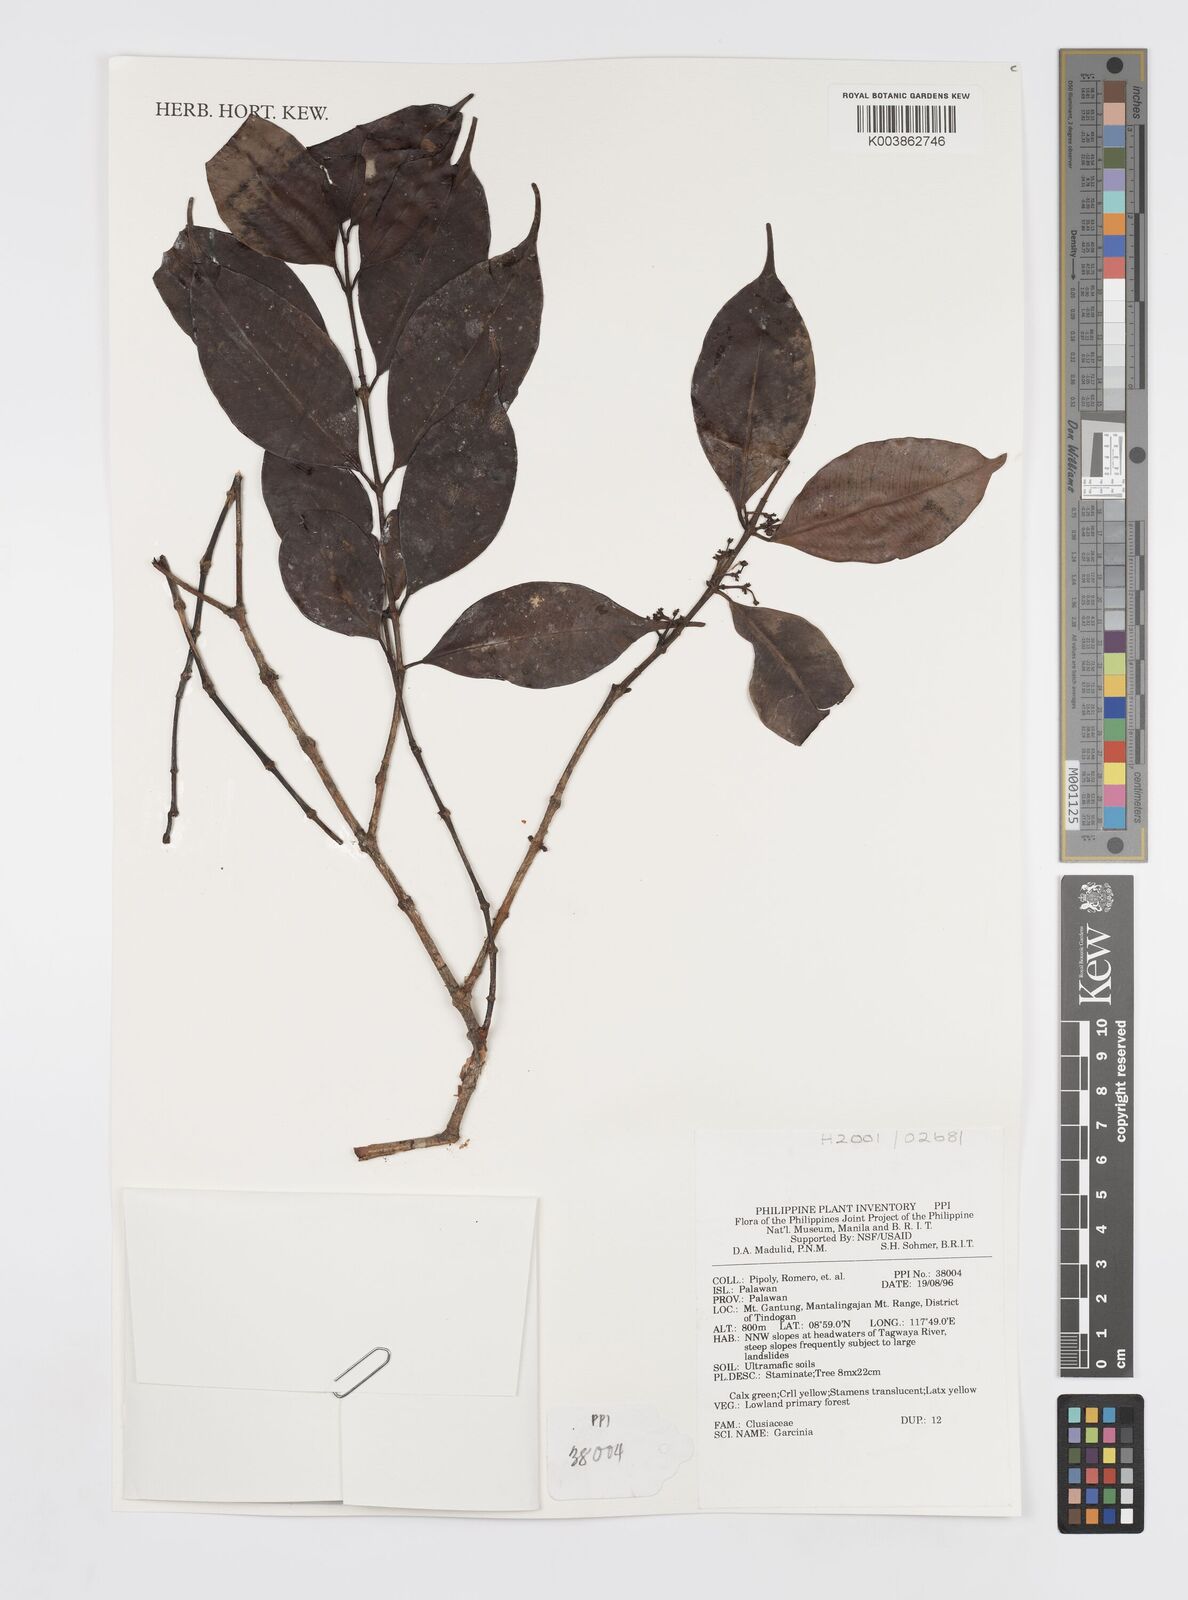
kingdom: Plantae
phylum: Tracheophyta
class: Magnoliopsida
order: Malpighiales
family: Clusiaceae
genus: Garcinia
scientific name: Garcinia
